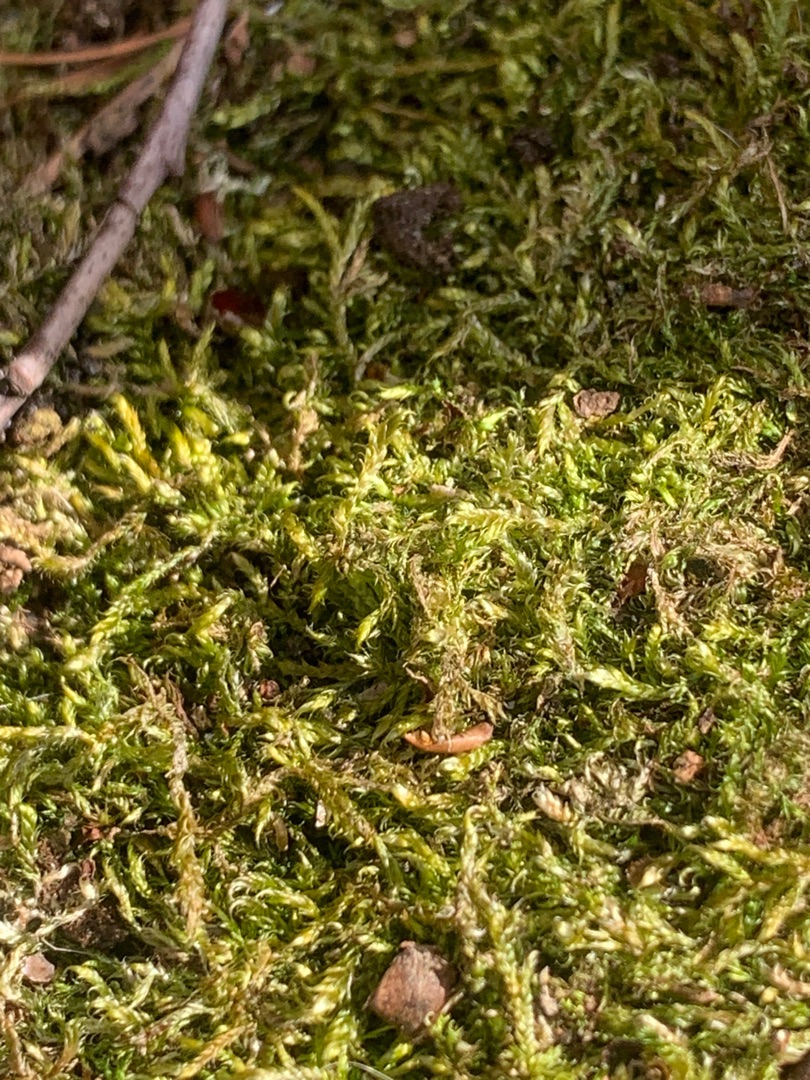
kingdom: Plantae
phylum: Bryophyta
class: Bryopsida
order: Hypnales
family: Hypnaceae
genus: Hypnum
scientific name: Hypnum cupressiforme
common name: Almindelig cypresmos
